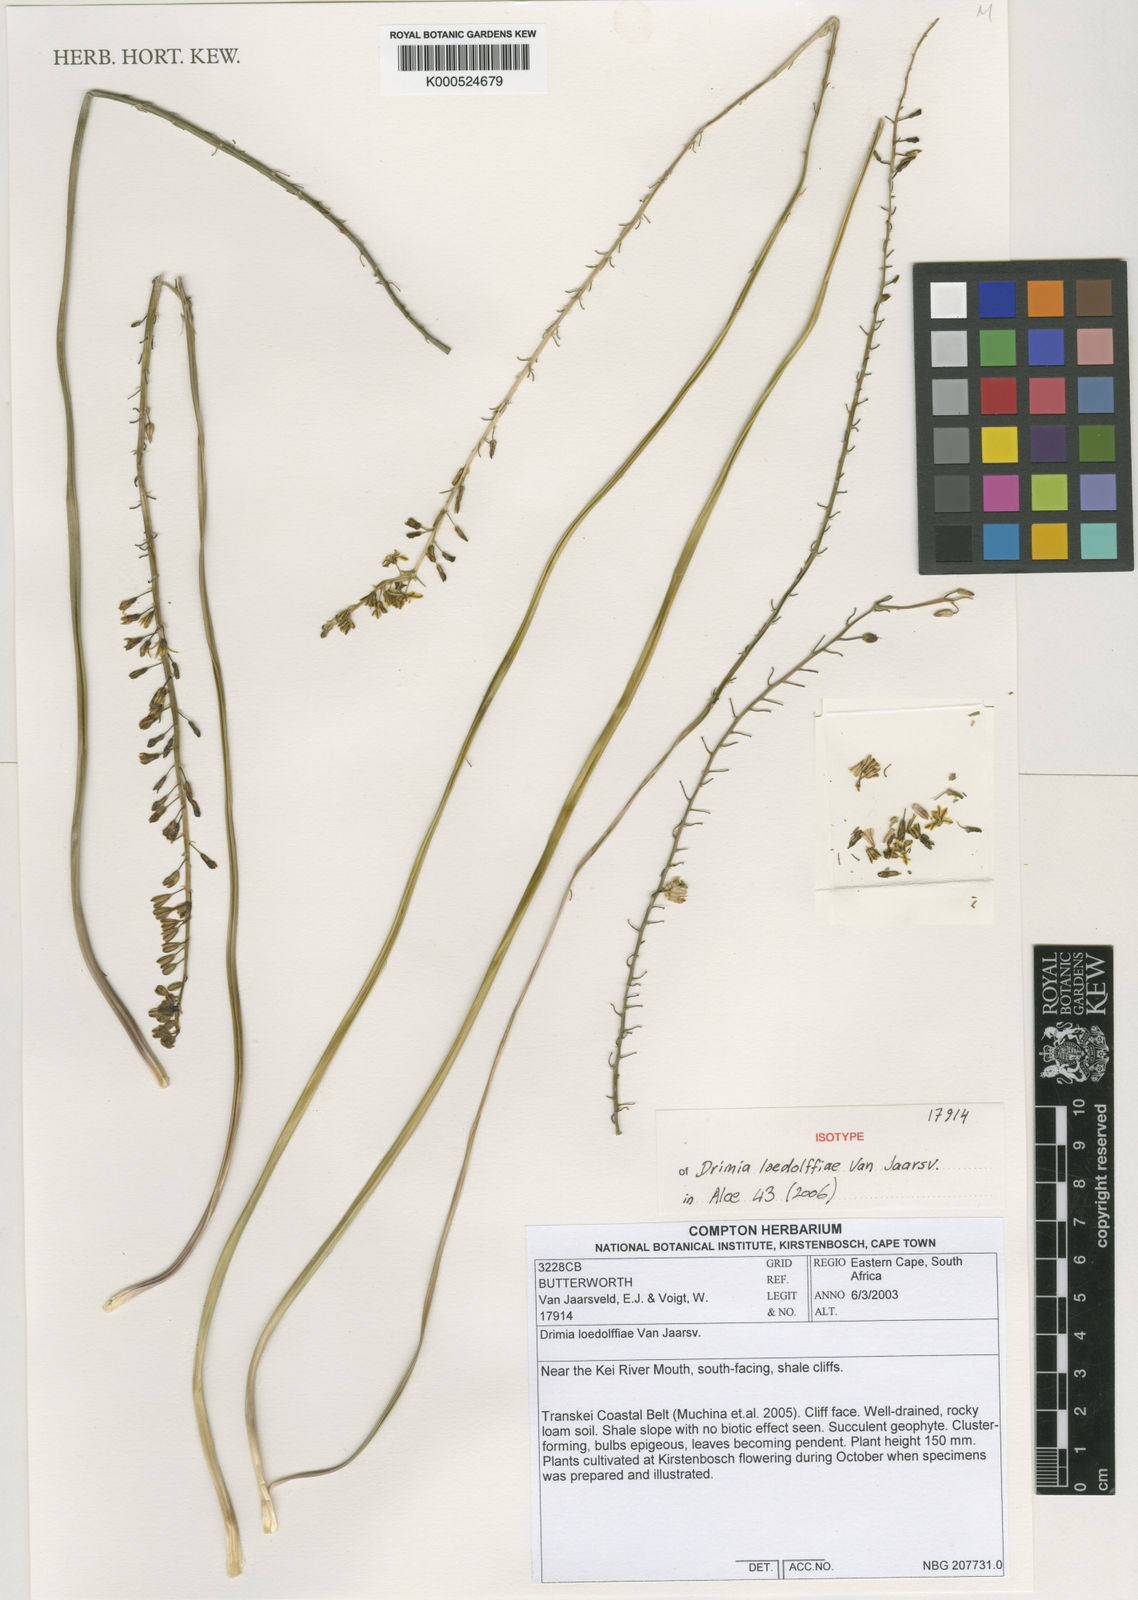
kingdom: Plantae
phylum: Tracheophyta
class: Liliopsida
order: Asparagales
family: Asparagaceae
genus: Drimia
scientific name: Drimia modesta
